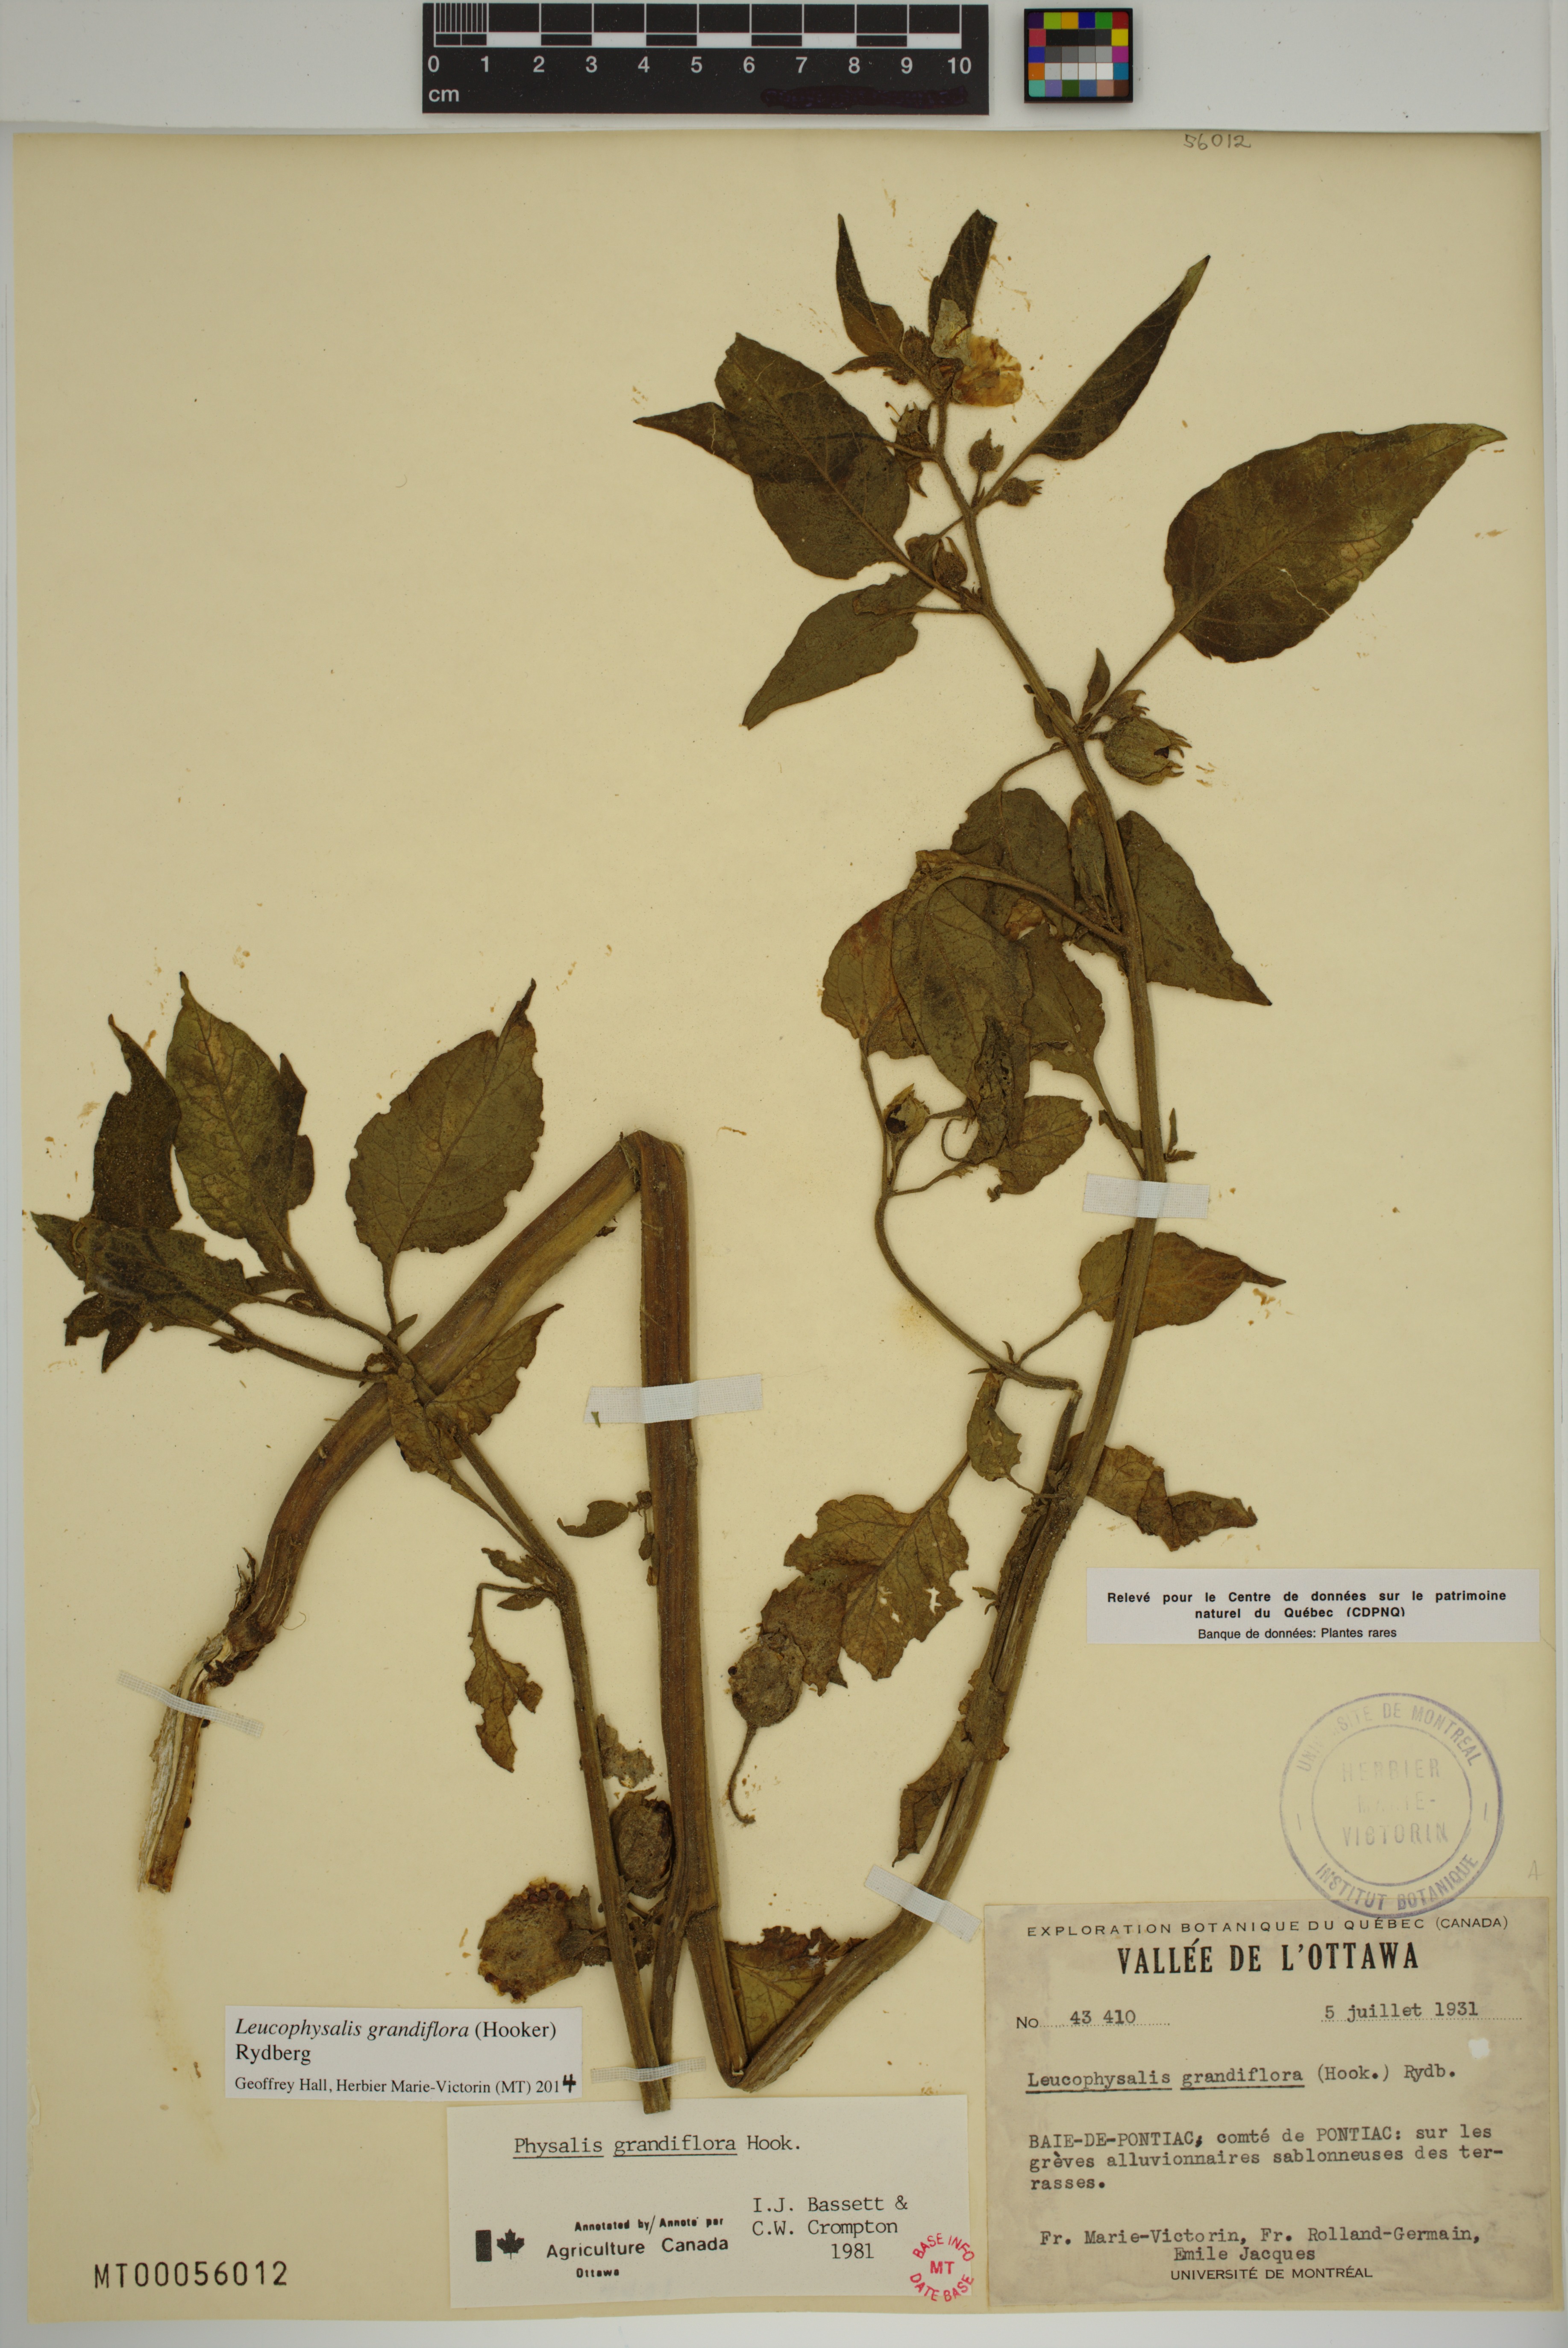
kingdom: Plantae
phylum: Tracheophyta
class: Magnoliopsida
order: Solanales
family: Solanaceae
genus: Leucophysalis
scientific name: Leucophysalis grandiflora
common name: Large false ground-cherry
